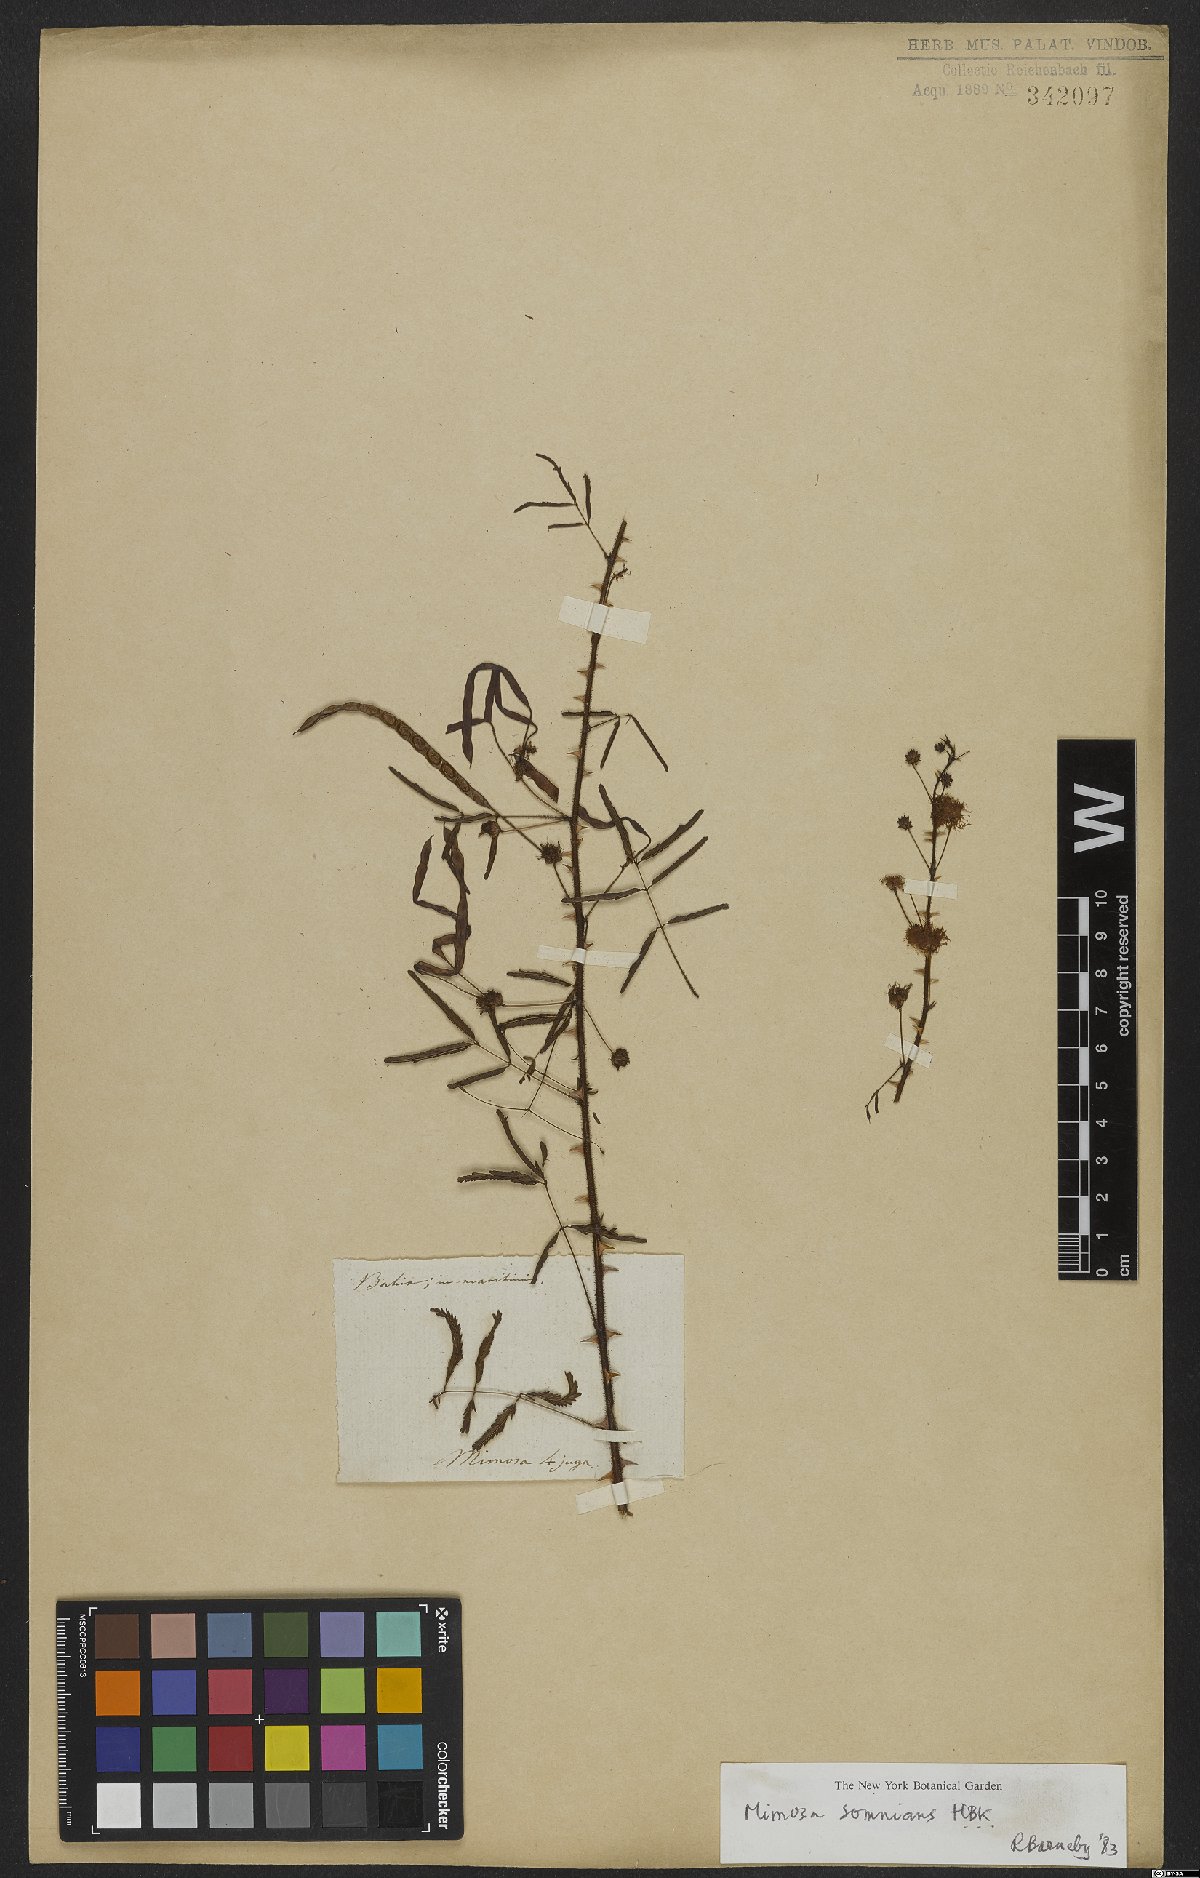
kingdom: Plantae
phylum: Tracheophyta
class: Magnoliopsida
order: Fabales
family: Fabaceae
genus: Mimosa
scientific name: Mimosa somnians
